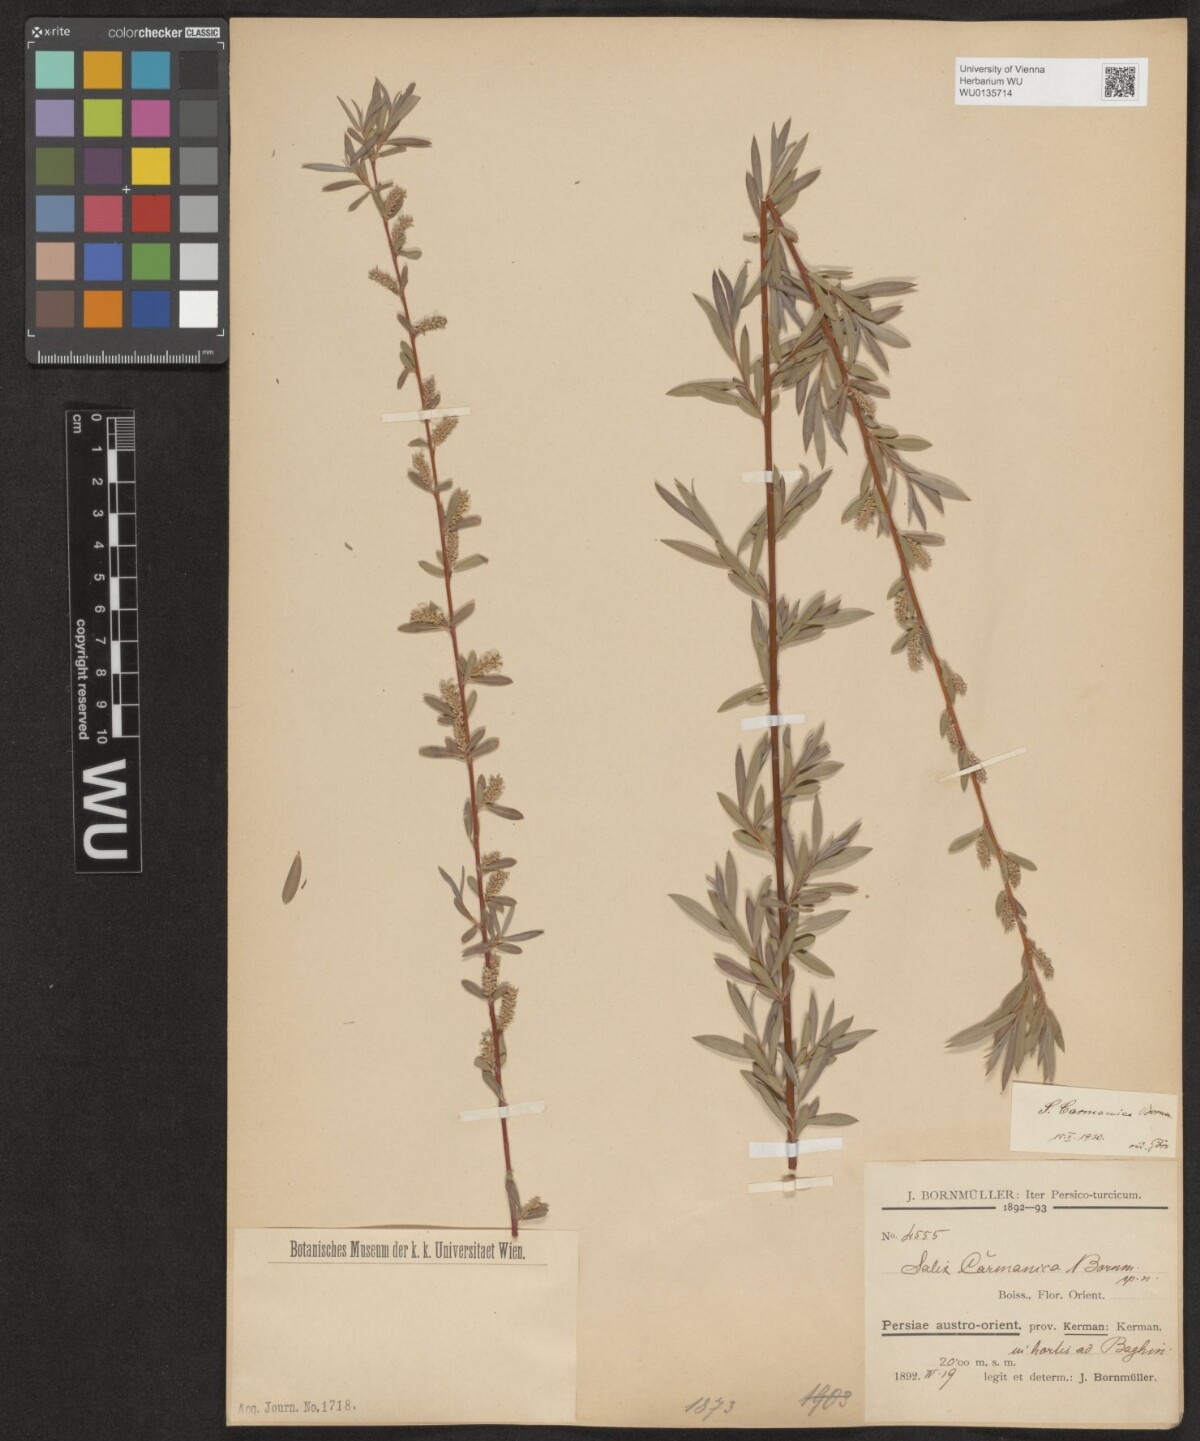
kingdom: Plantae
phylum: Tracheophyta
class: Magnoliopsida
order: Malpighiales
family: Salicaceae
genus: Salix
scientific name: Salix carmanica
